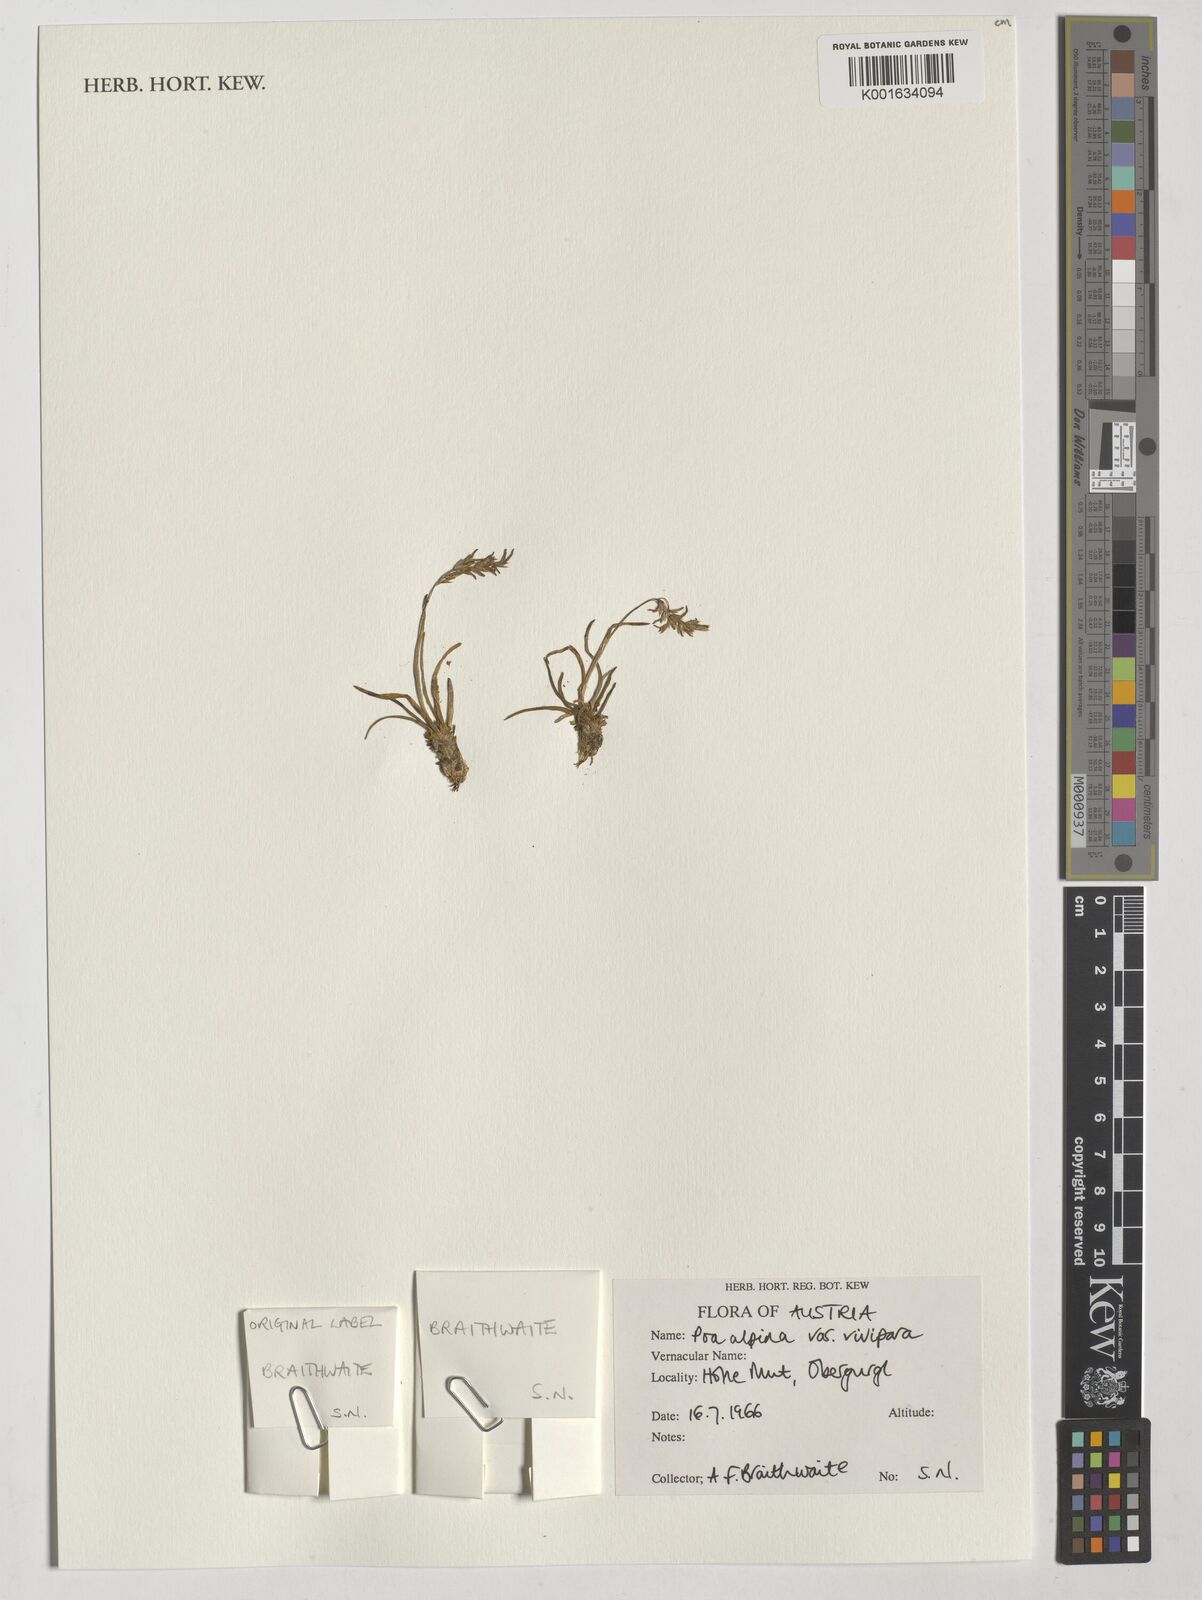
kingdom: Plantae
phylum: Tracheophyta
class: Liliopsida
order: Poales
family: Poaceae
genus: Poa
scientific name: Poa alpina
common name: Alpine bluegrass
